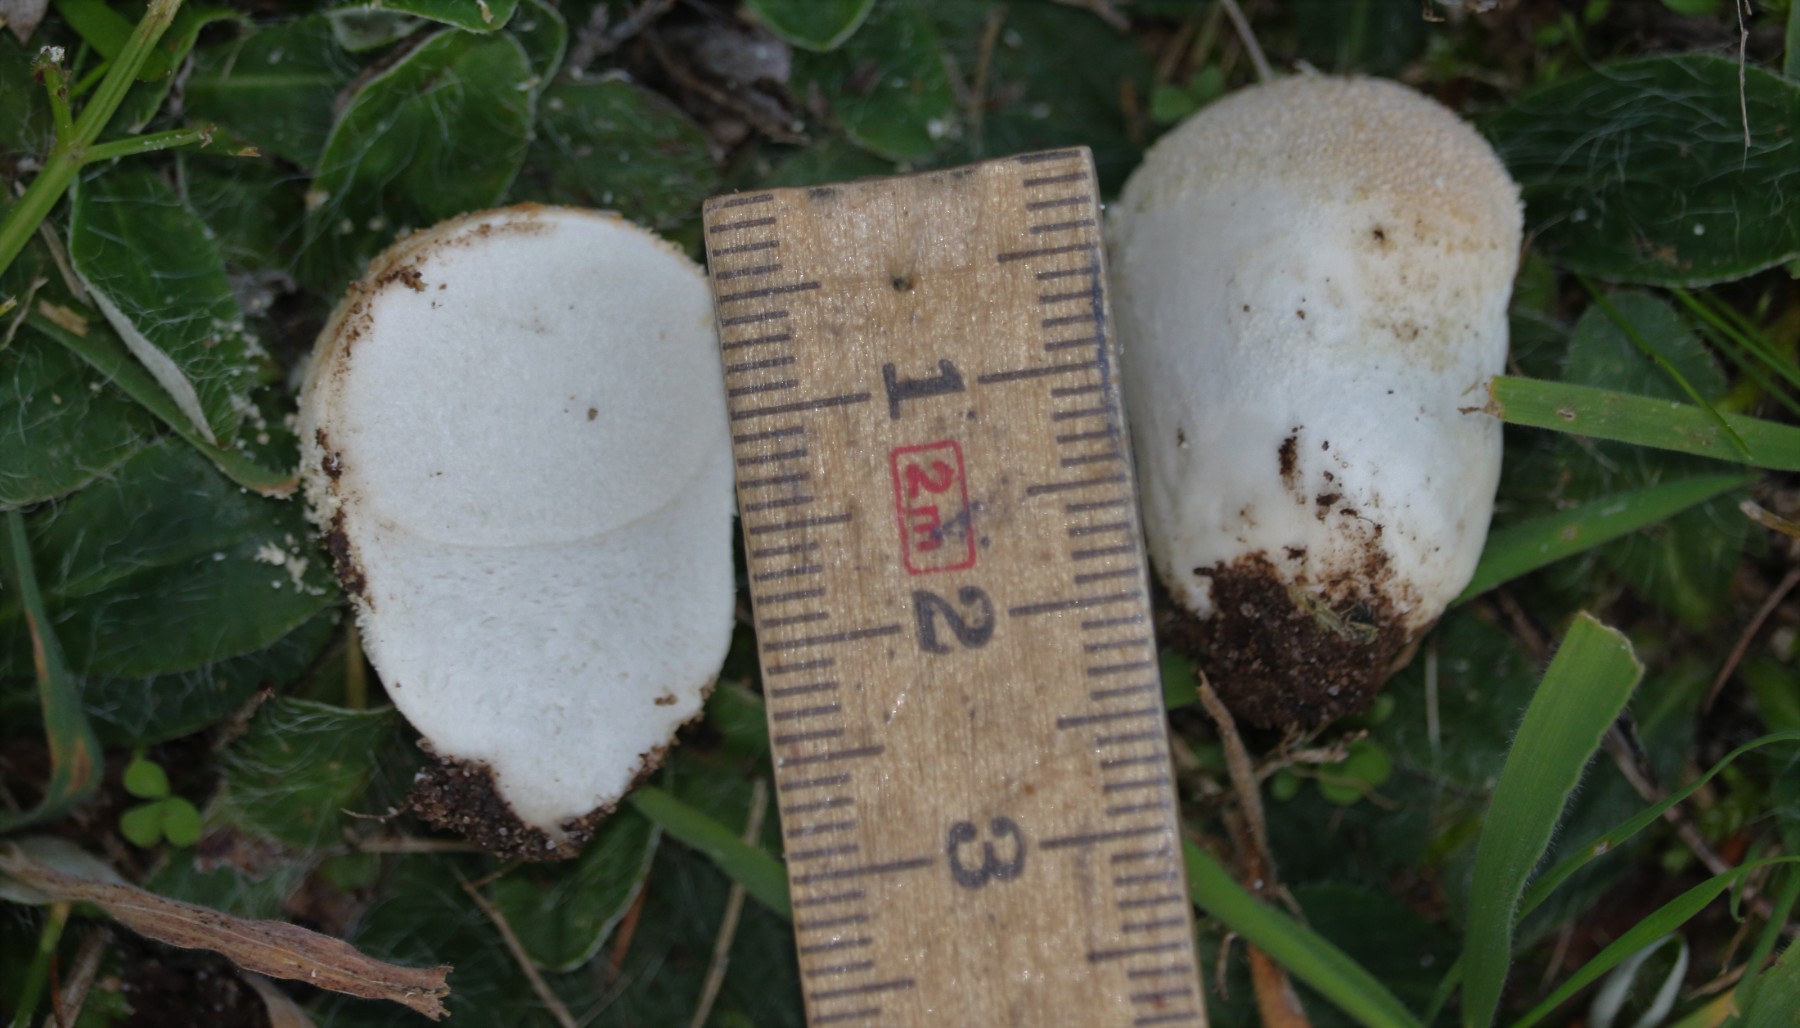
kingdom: Fungi
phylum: Basidiomycota
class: Agaricomycetes
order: Agaricales
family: Lycoperdaceae
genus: Lycoperdon
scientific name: Lycoperdon pratense
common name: flad støvbold
